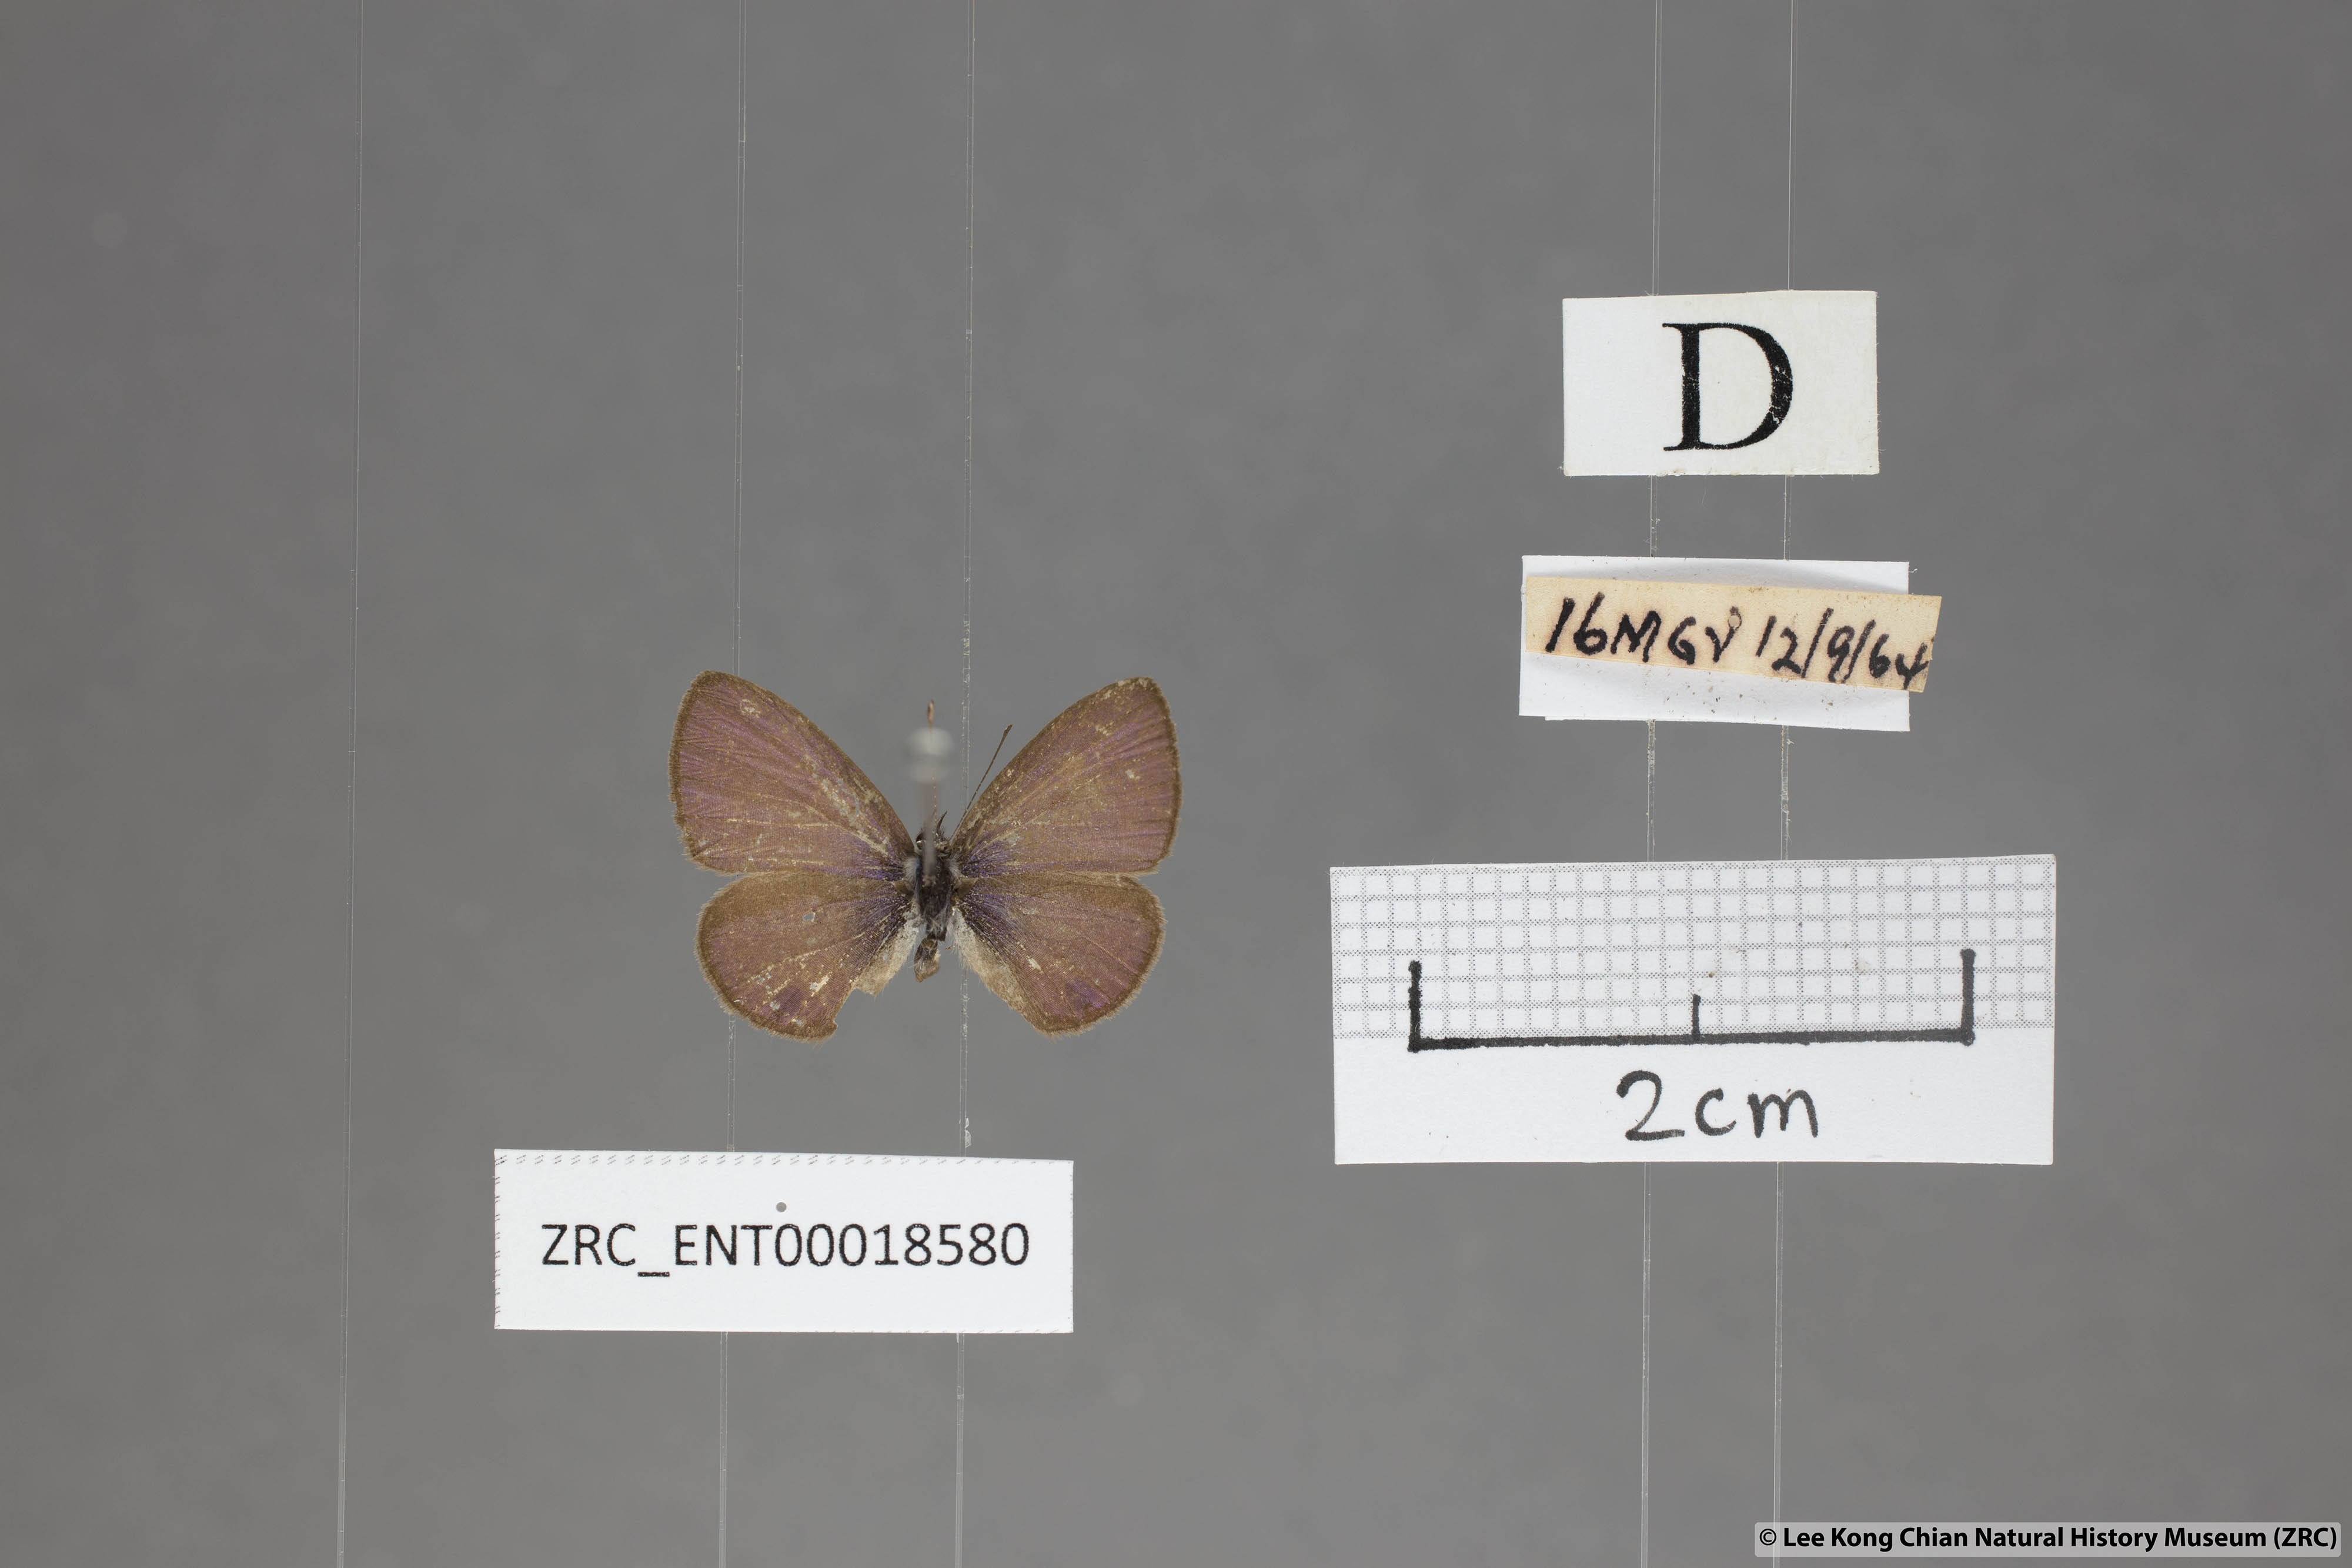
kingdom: Animalia
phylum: Arthropoda
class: Insecta
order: Lepidoptera
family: Lycaenidae
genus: Prosotas
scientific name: Prosotas dubiosa
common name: Tailless lineblue
